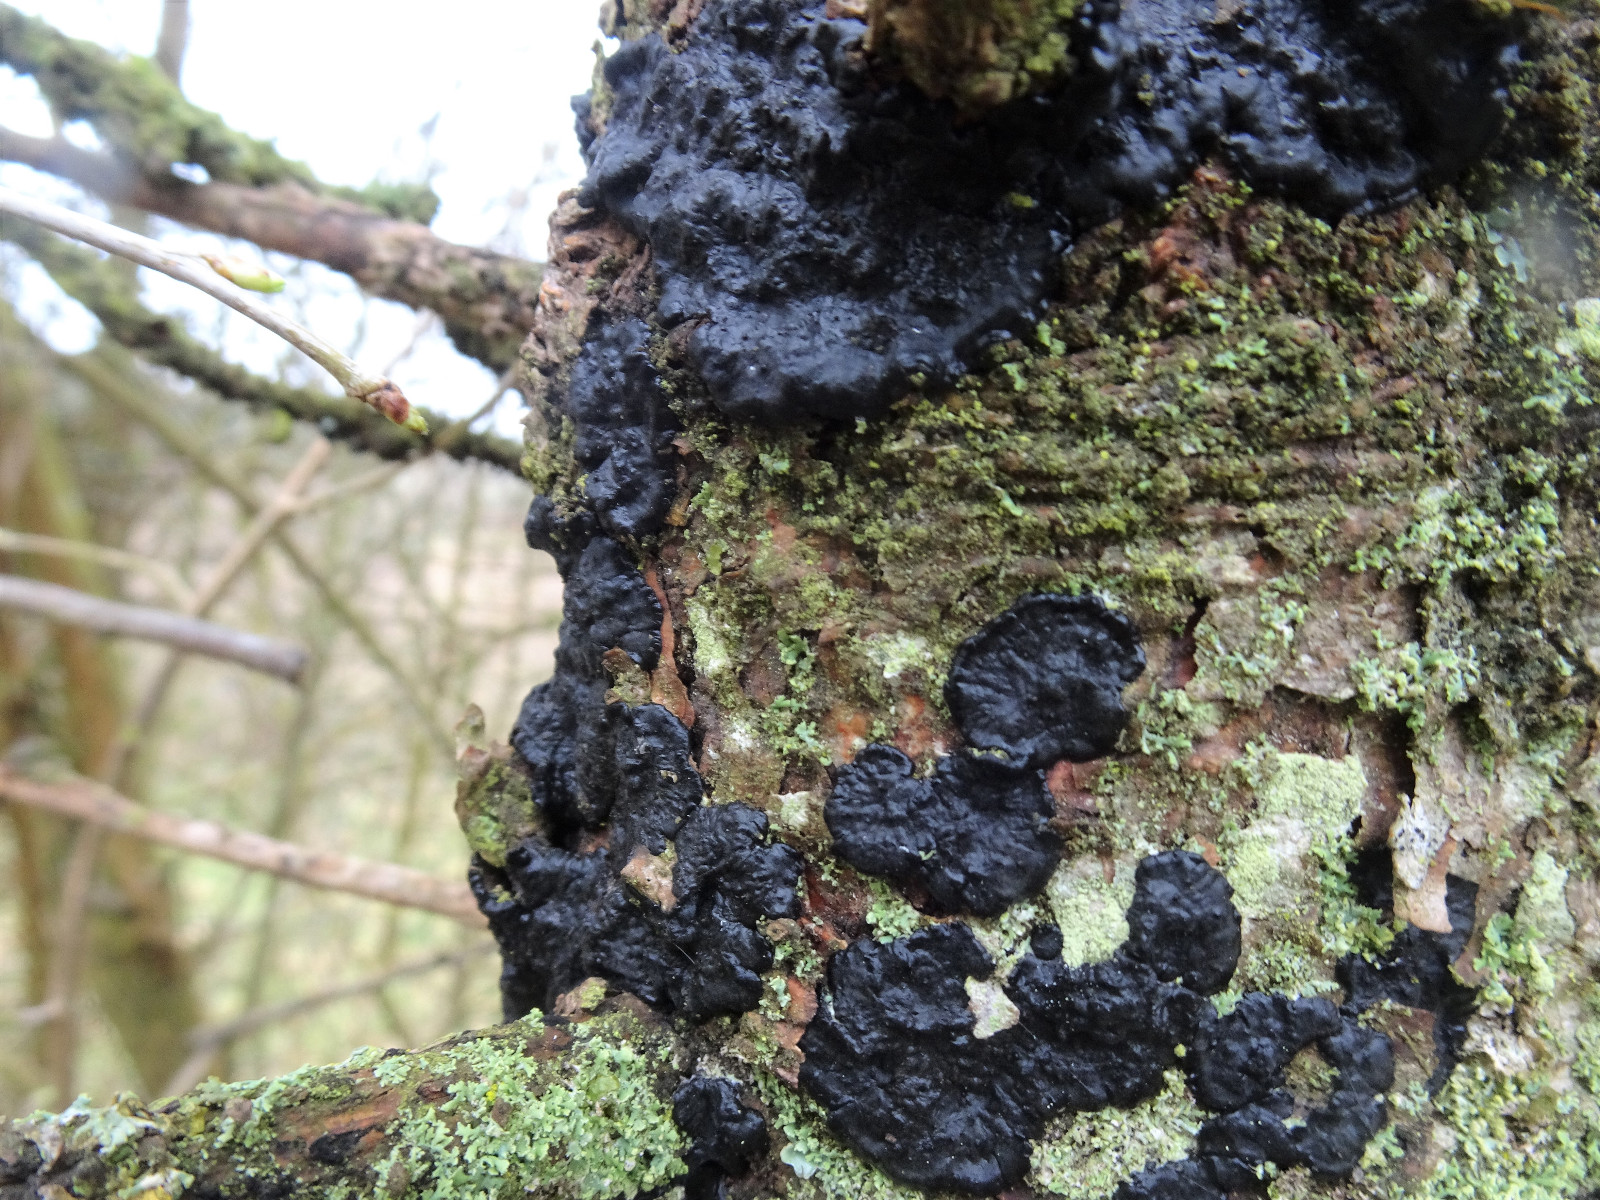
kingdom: Fungi
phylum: Basidiomycota
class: Agaricomycetes
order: Auriculariales
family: Auriculariaceae
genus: Exidia
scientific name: Exidia pithya
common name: gran-bævretop
